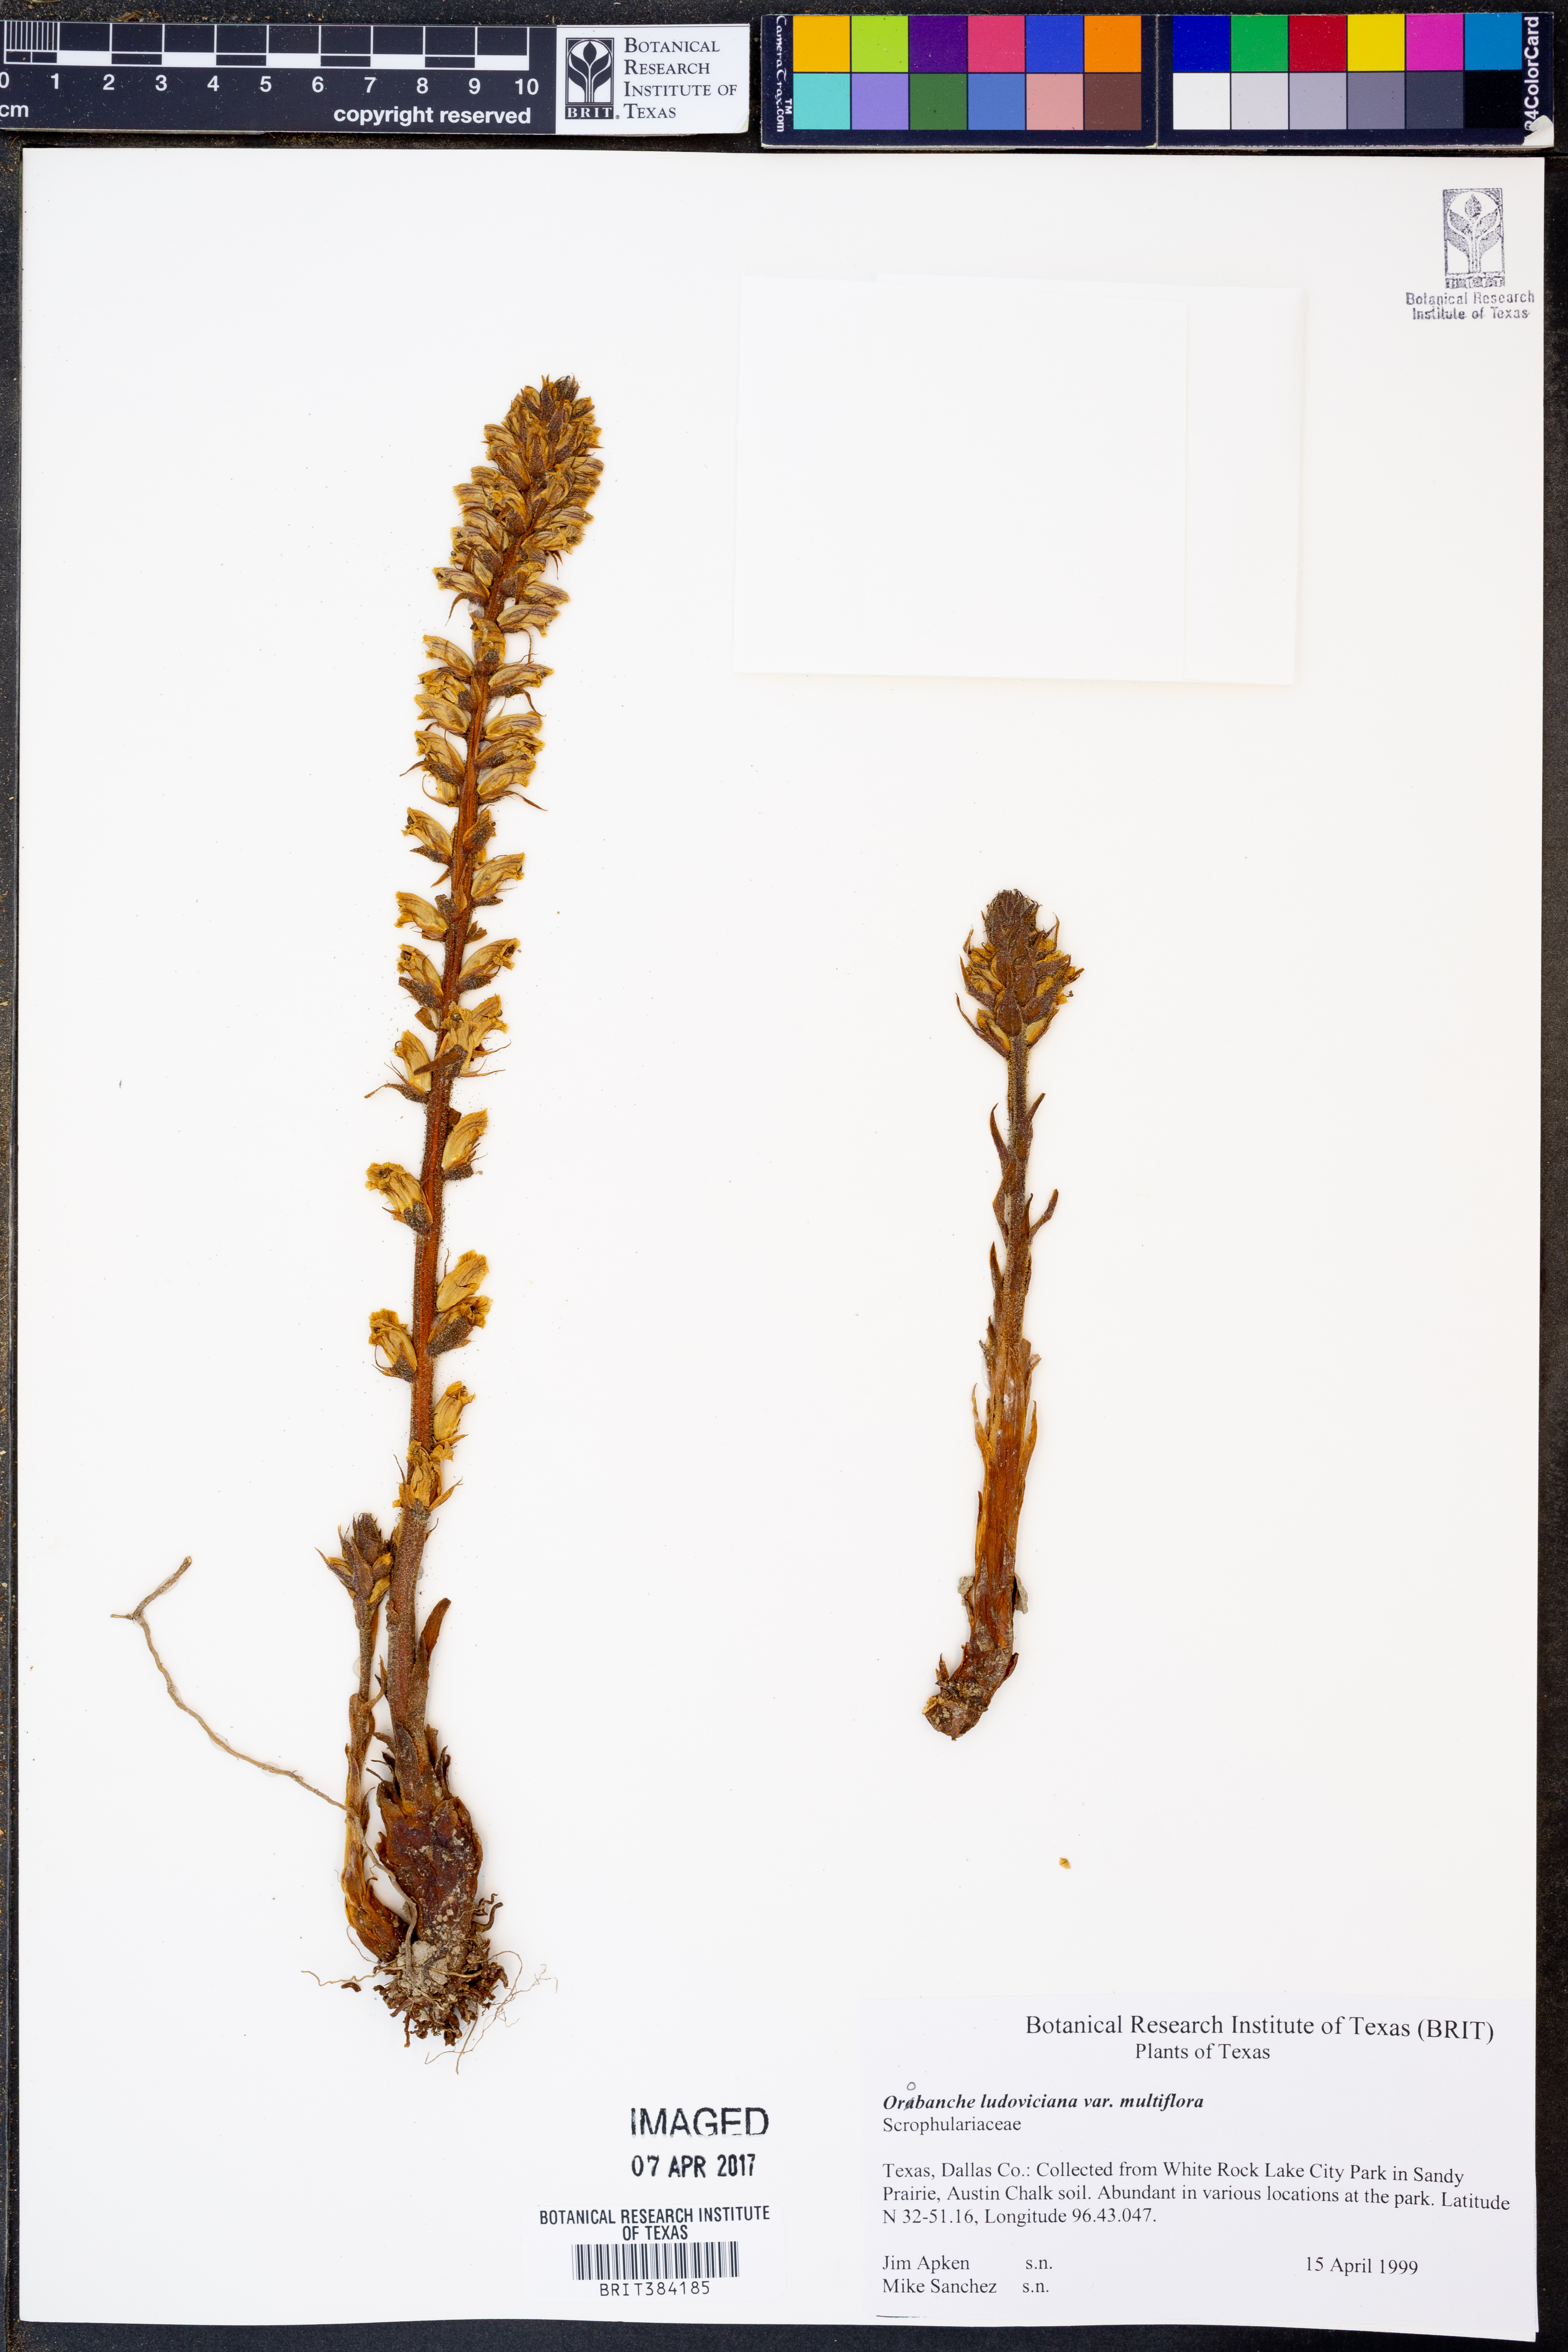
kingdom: Plantae
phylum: Tracheophyta
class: Magnoliopsida
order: Lamiales
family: Orobanchaceae
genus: Aphyllon
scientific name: Aphyllon multiflorum
